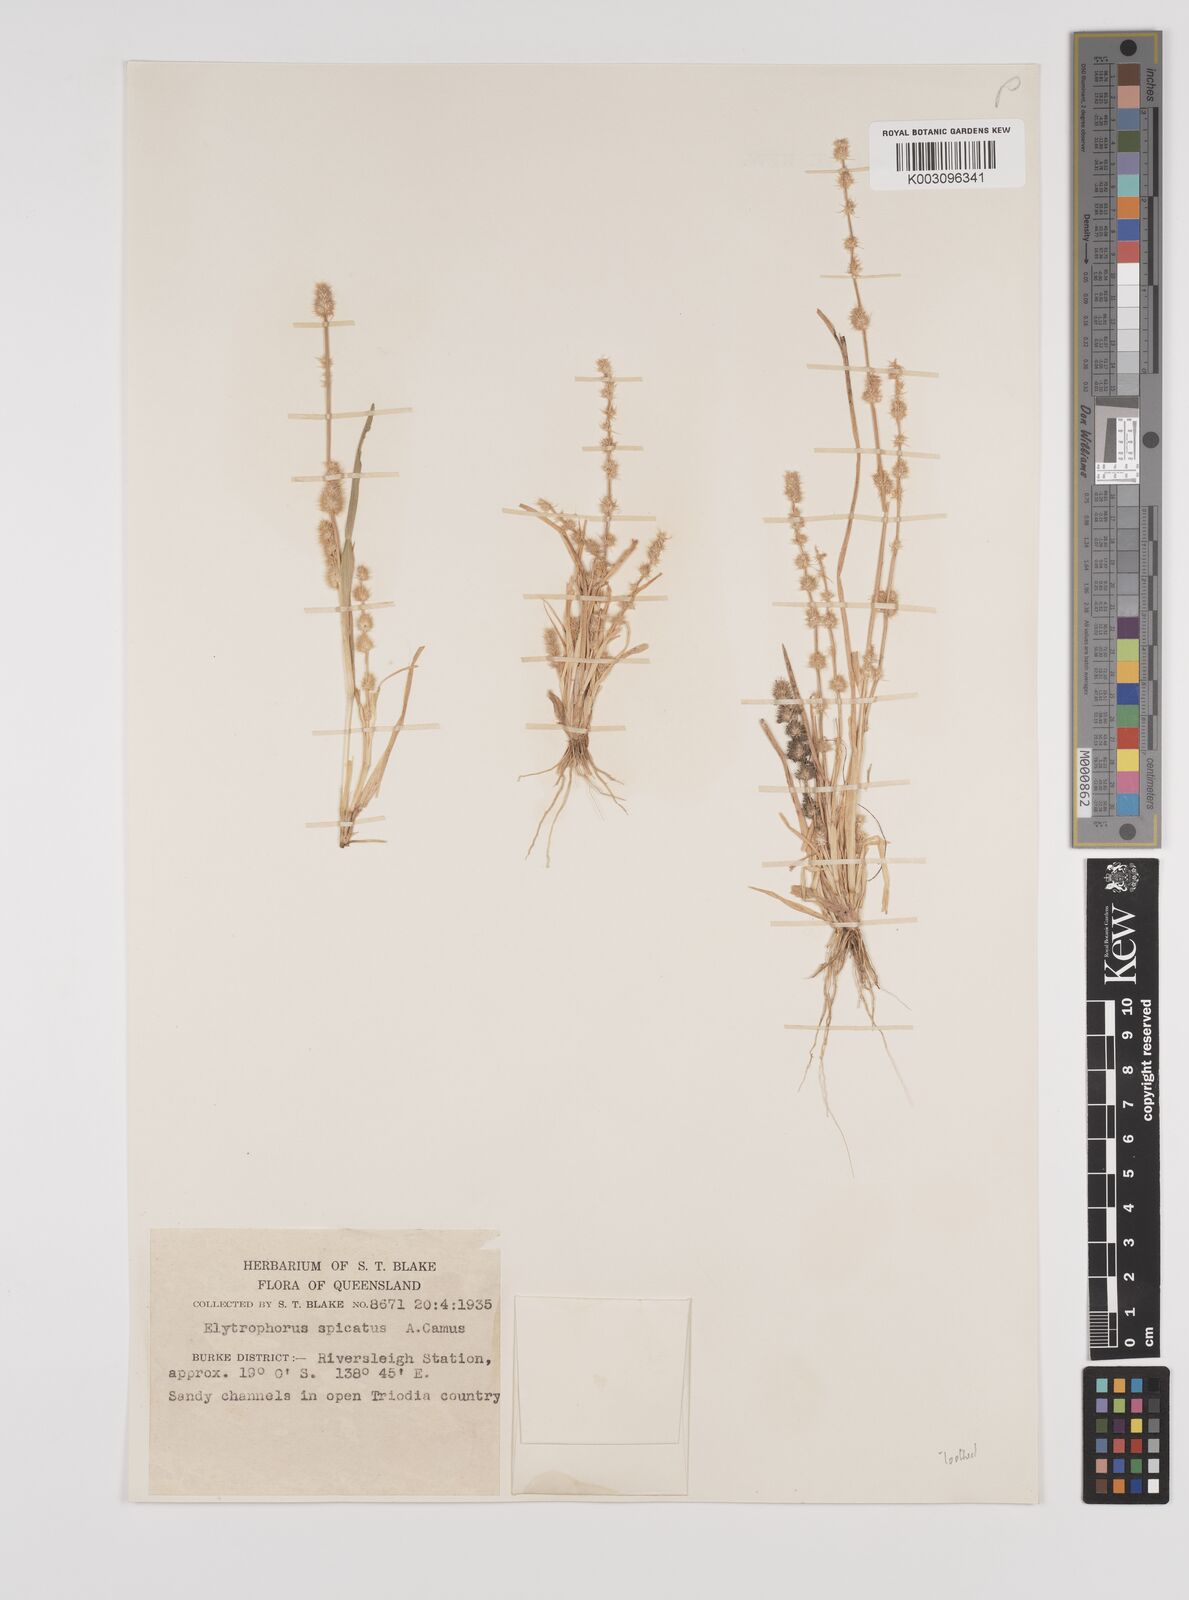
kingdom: Plantae
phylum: Tracheophyta
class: Liliopsida
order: Poales
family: Poaceae
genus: Elytrophorus
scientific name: Elytrophorus spicatus
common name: Spike grass
